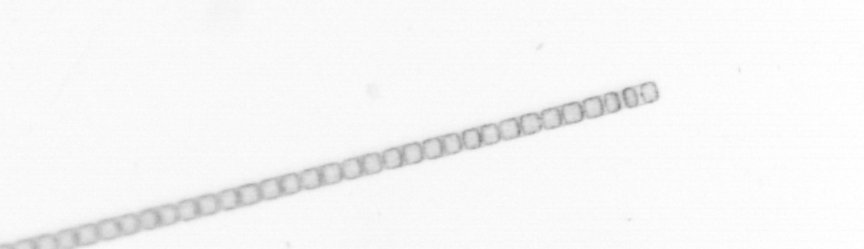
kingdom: Chromista
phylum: Ochrophyta
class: Bacillariophyceae
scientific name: Bacillariophyceae
